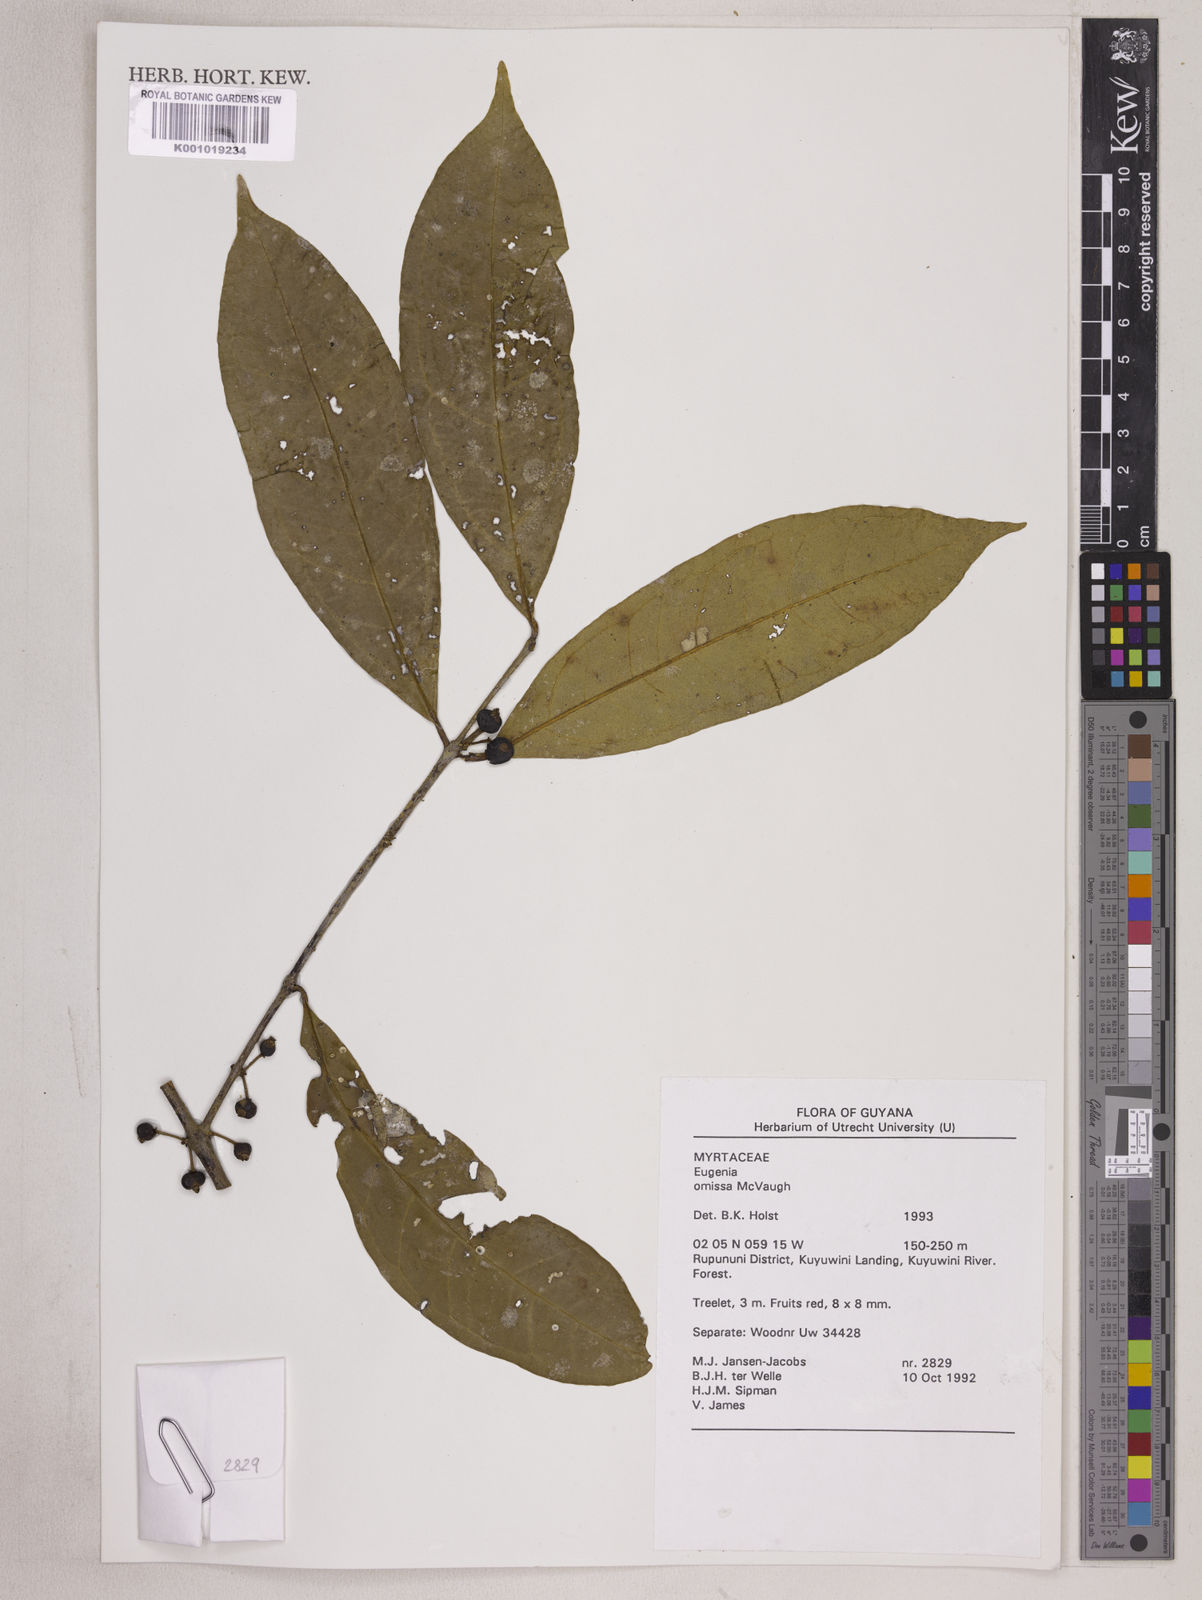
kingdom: Plantae
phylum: Tracheophyta
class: Magnoliopsida
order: Myrtales
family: Myrtaceae
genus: Eugenia
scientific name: Eugenia omissa
